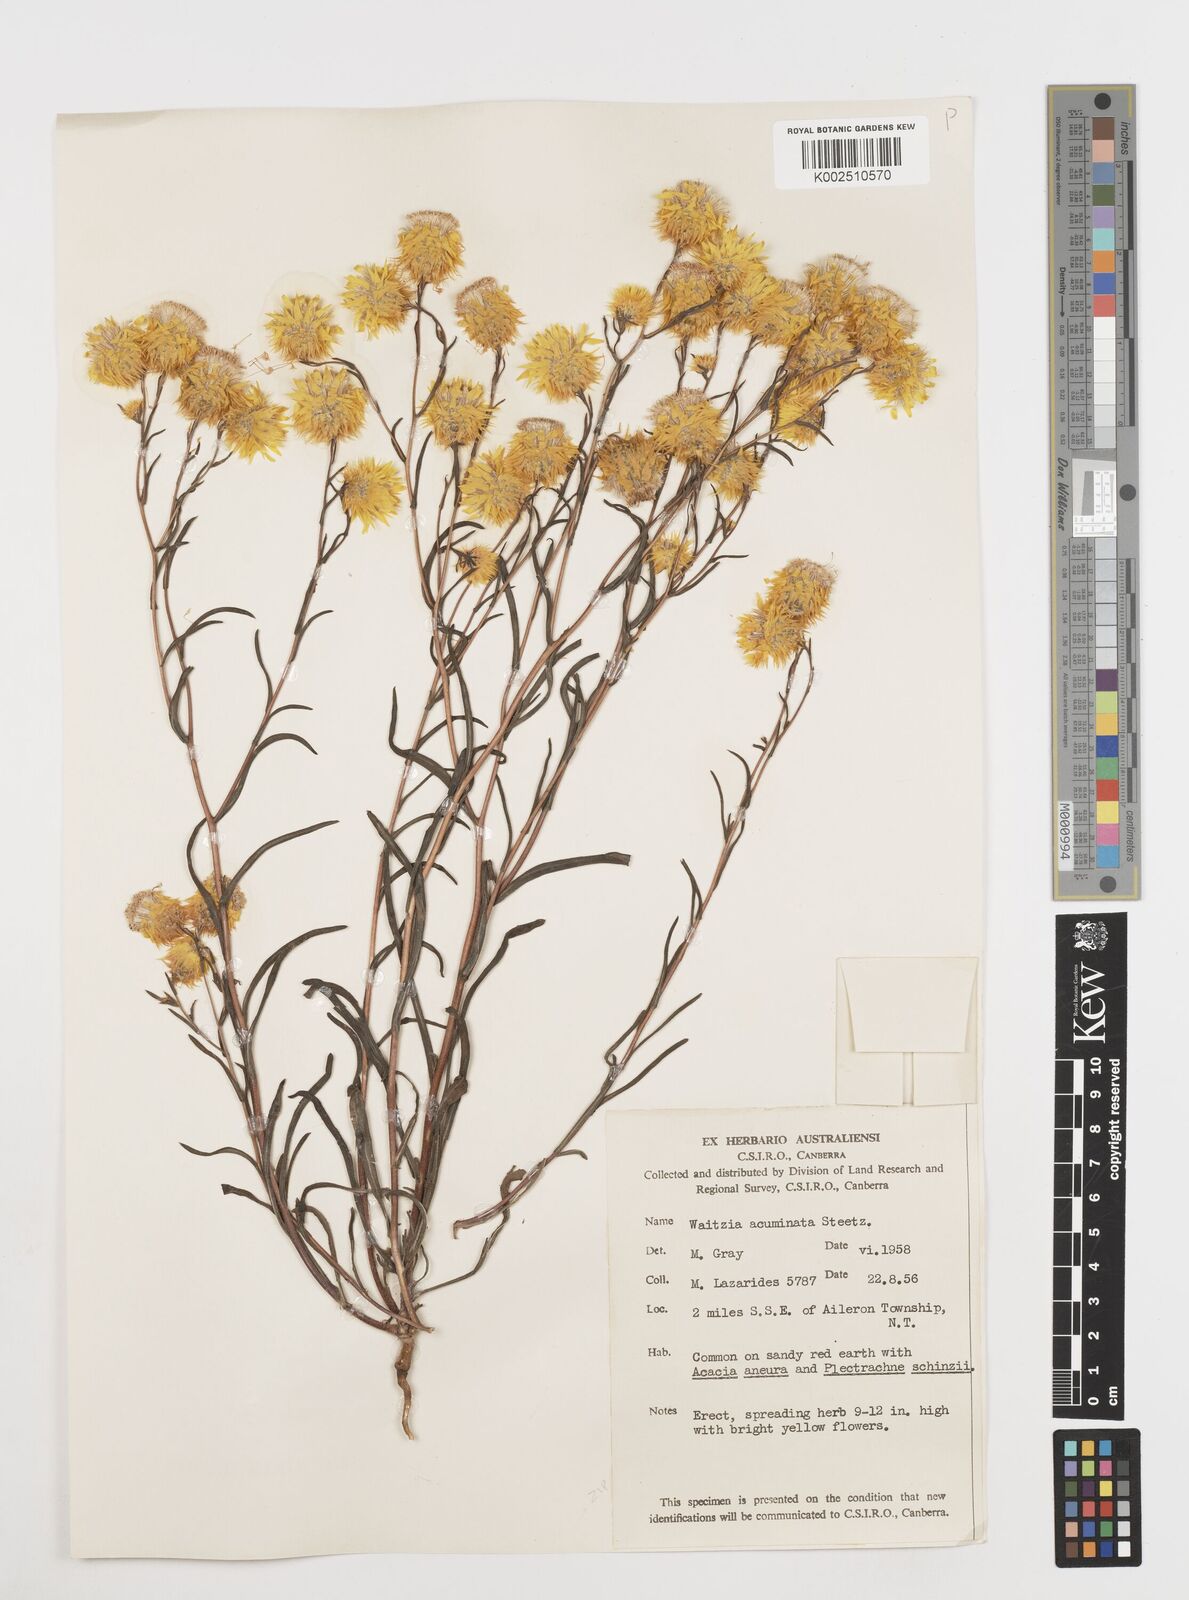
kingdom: Plantae
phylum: Tracheophyta
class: Magnoliopsida
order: Asterales
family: Asteraceae
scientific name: Asteraceae
